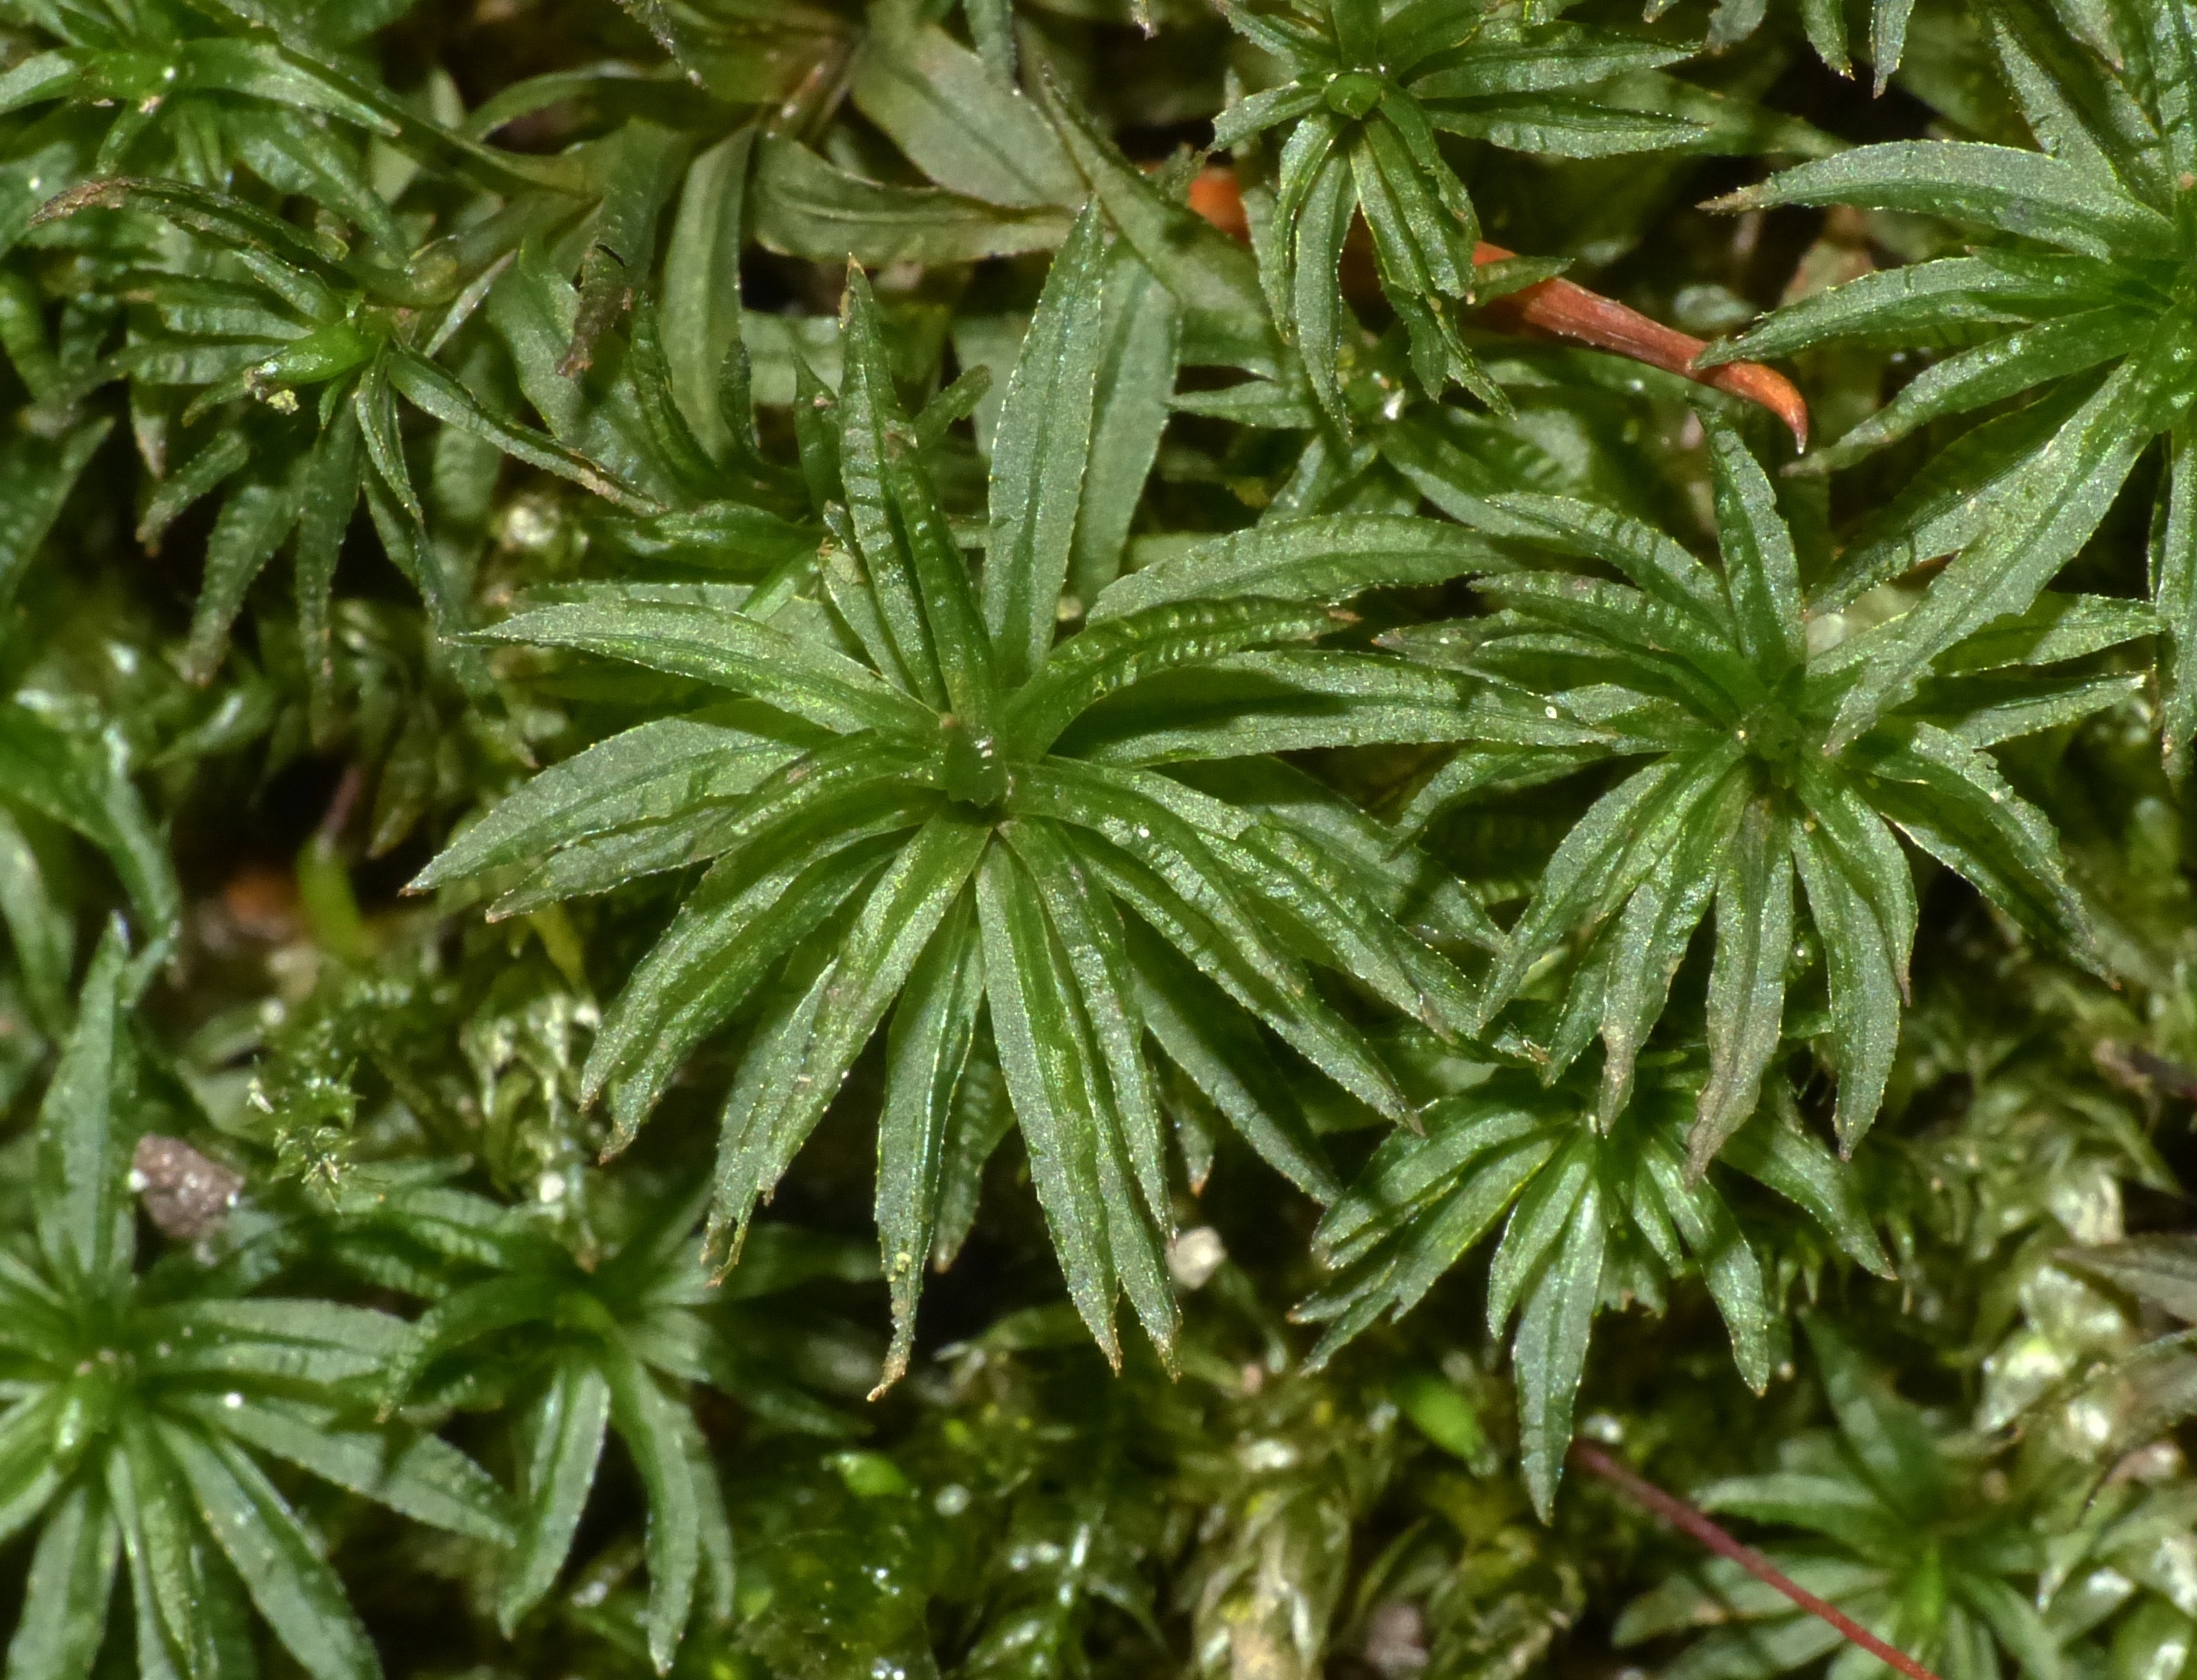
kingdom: Plantae
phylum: Bryophyta
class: Polytrichopsida
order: Polytrichales
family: Polytrichaceae
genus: Atrichum
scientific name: Atrichum undulatum
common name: Bølget katrinemos
